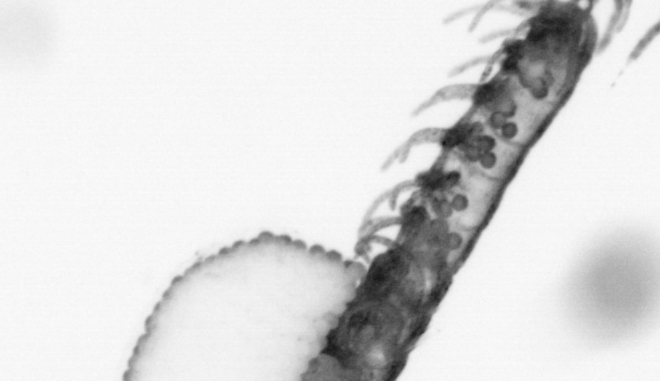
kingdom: Animalia
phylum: Annelida
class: Polychaeta
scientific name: Polychaeta
